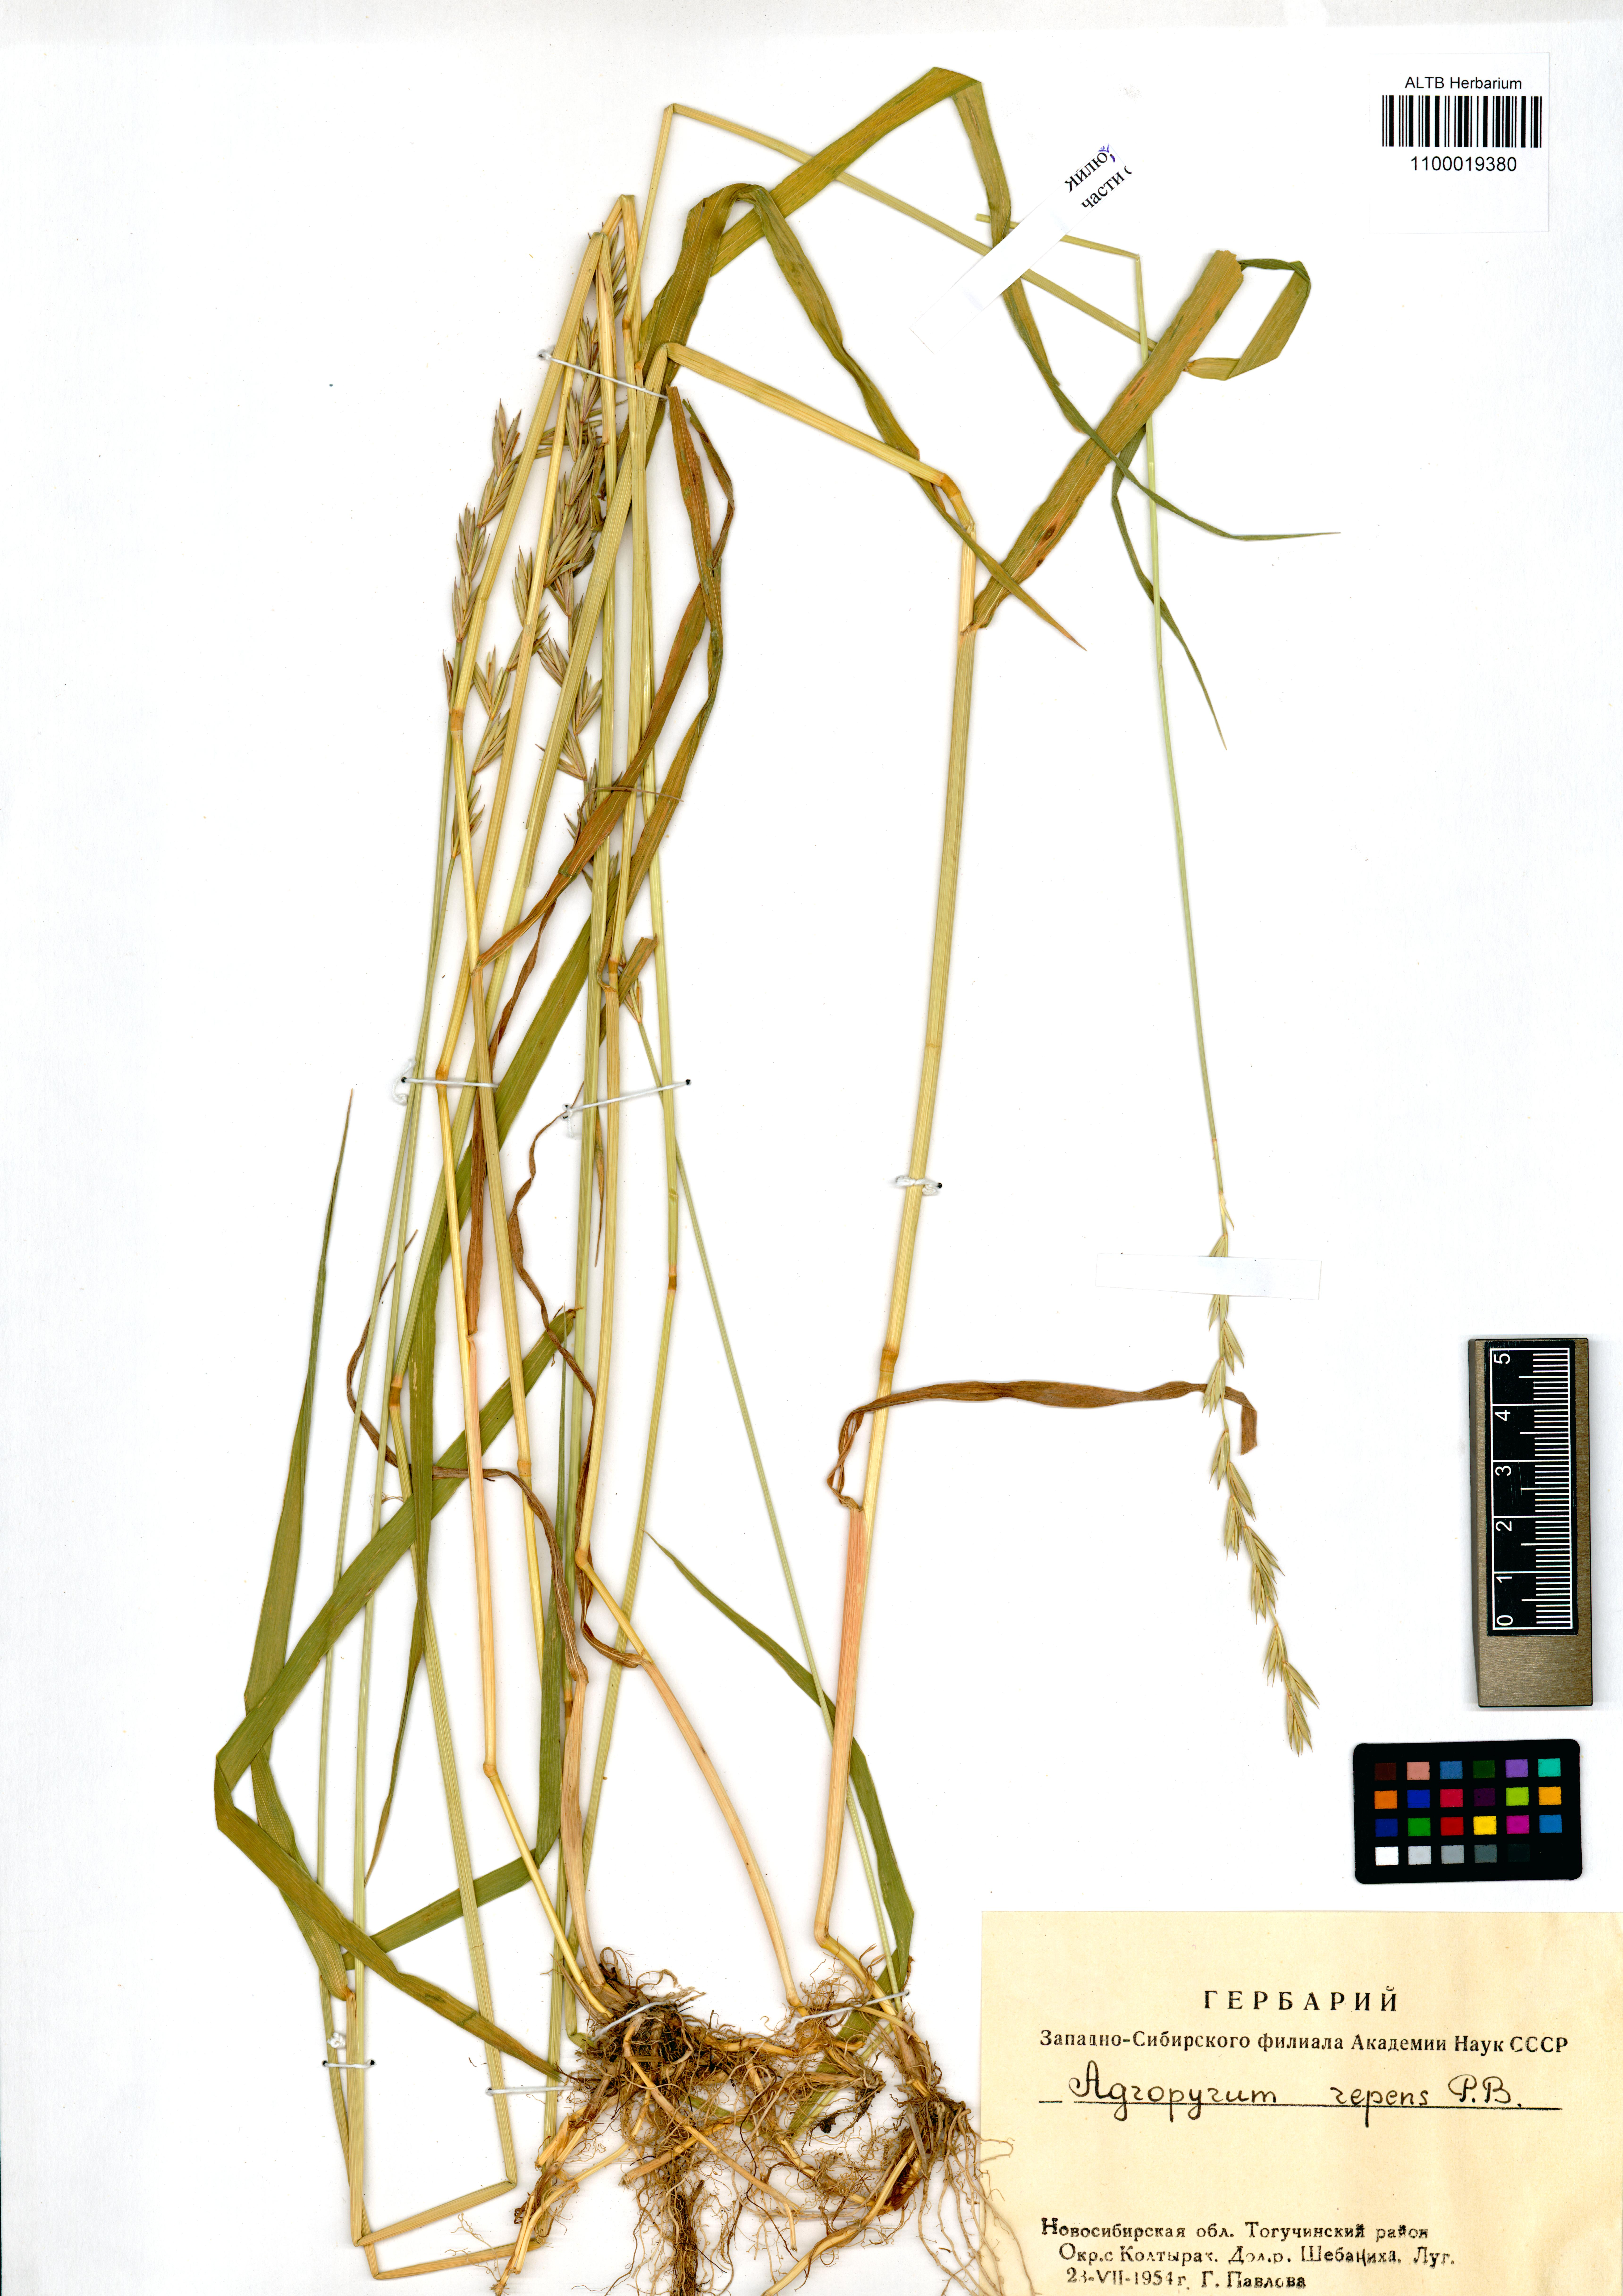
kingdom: Plantae
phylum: Tracheophyta
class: Liliopsida
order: Poales
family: Poaceae
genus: Elymus
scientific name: Elymus repens
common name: Quackgrass
